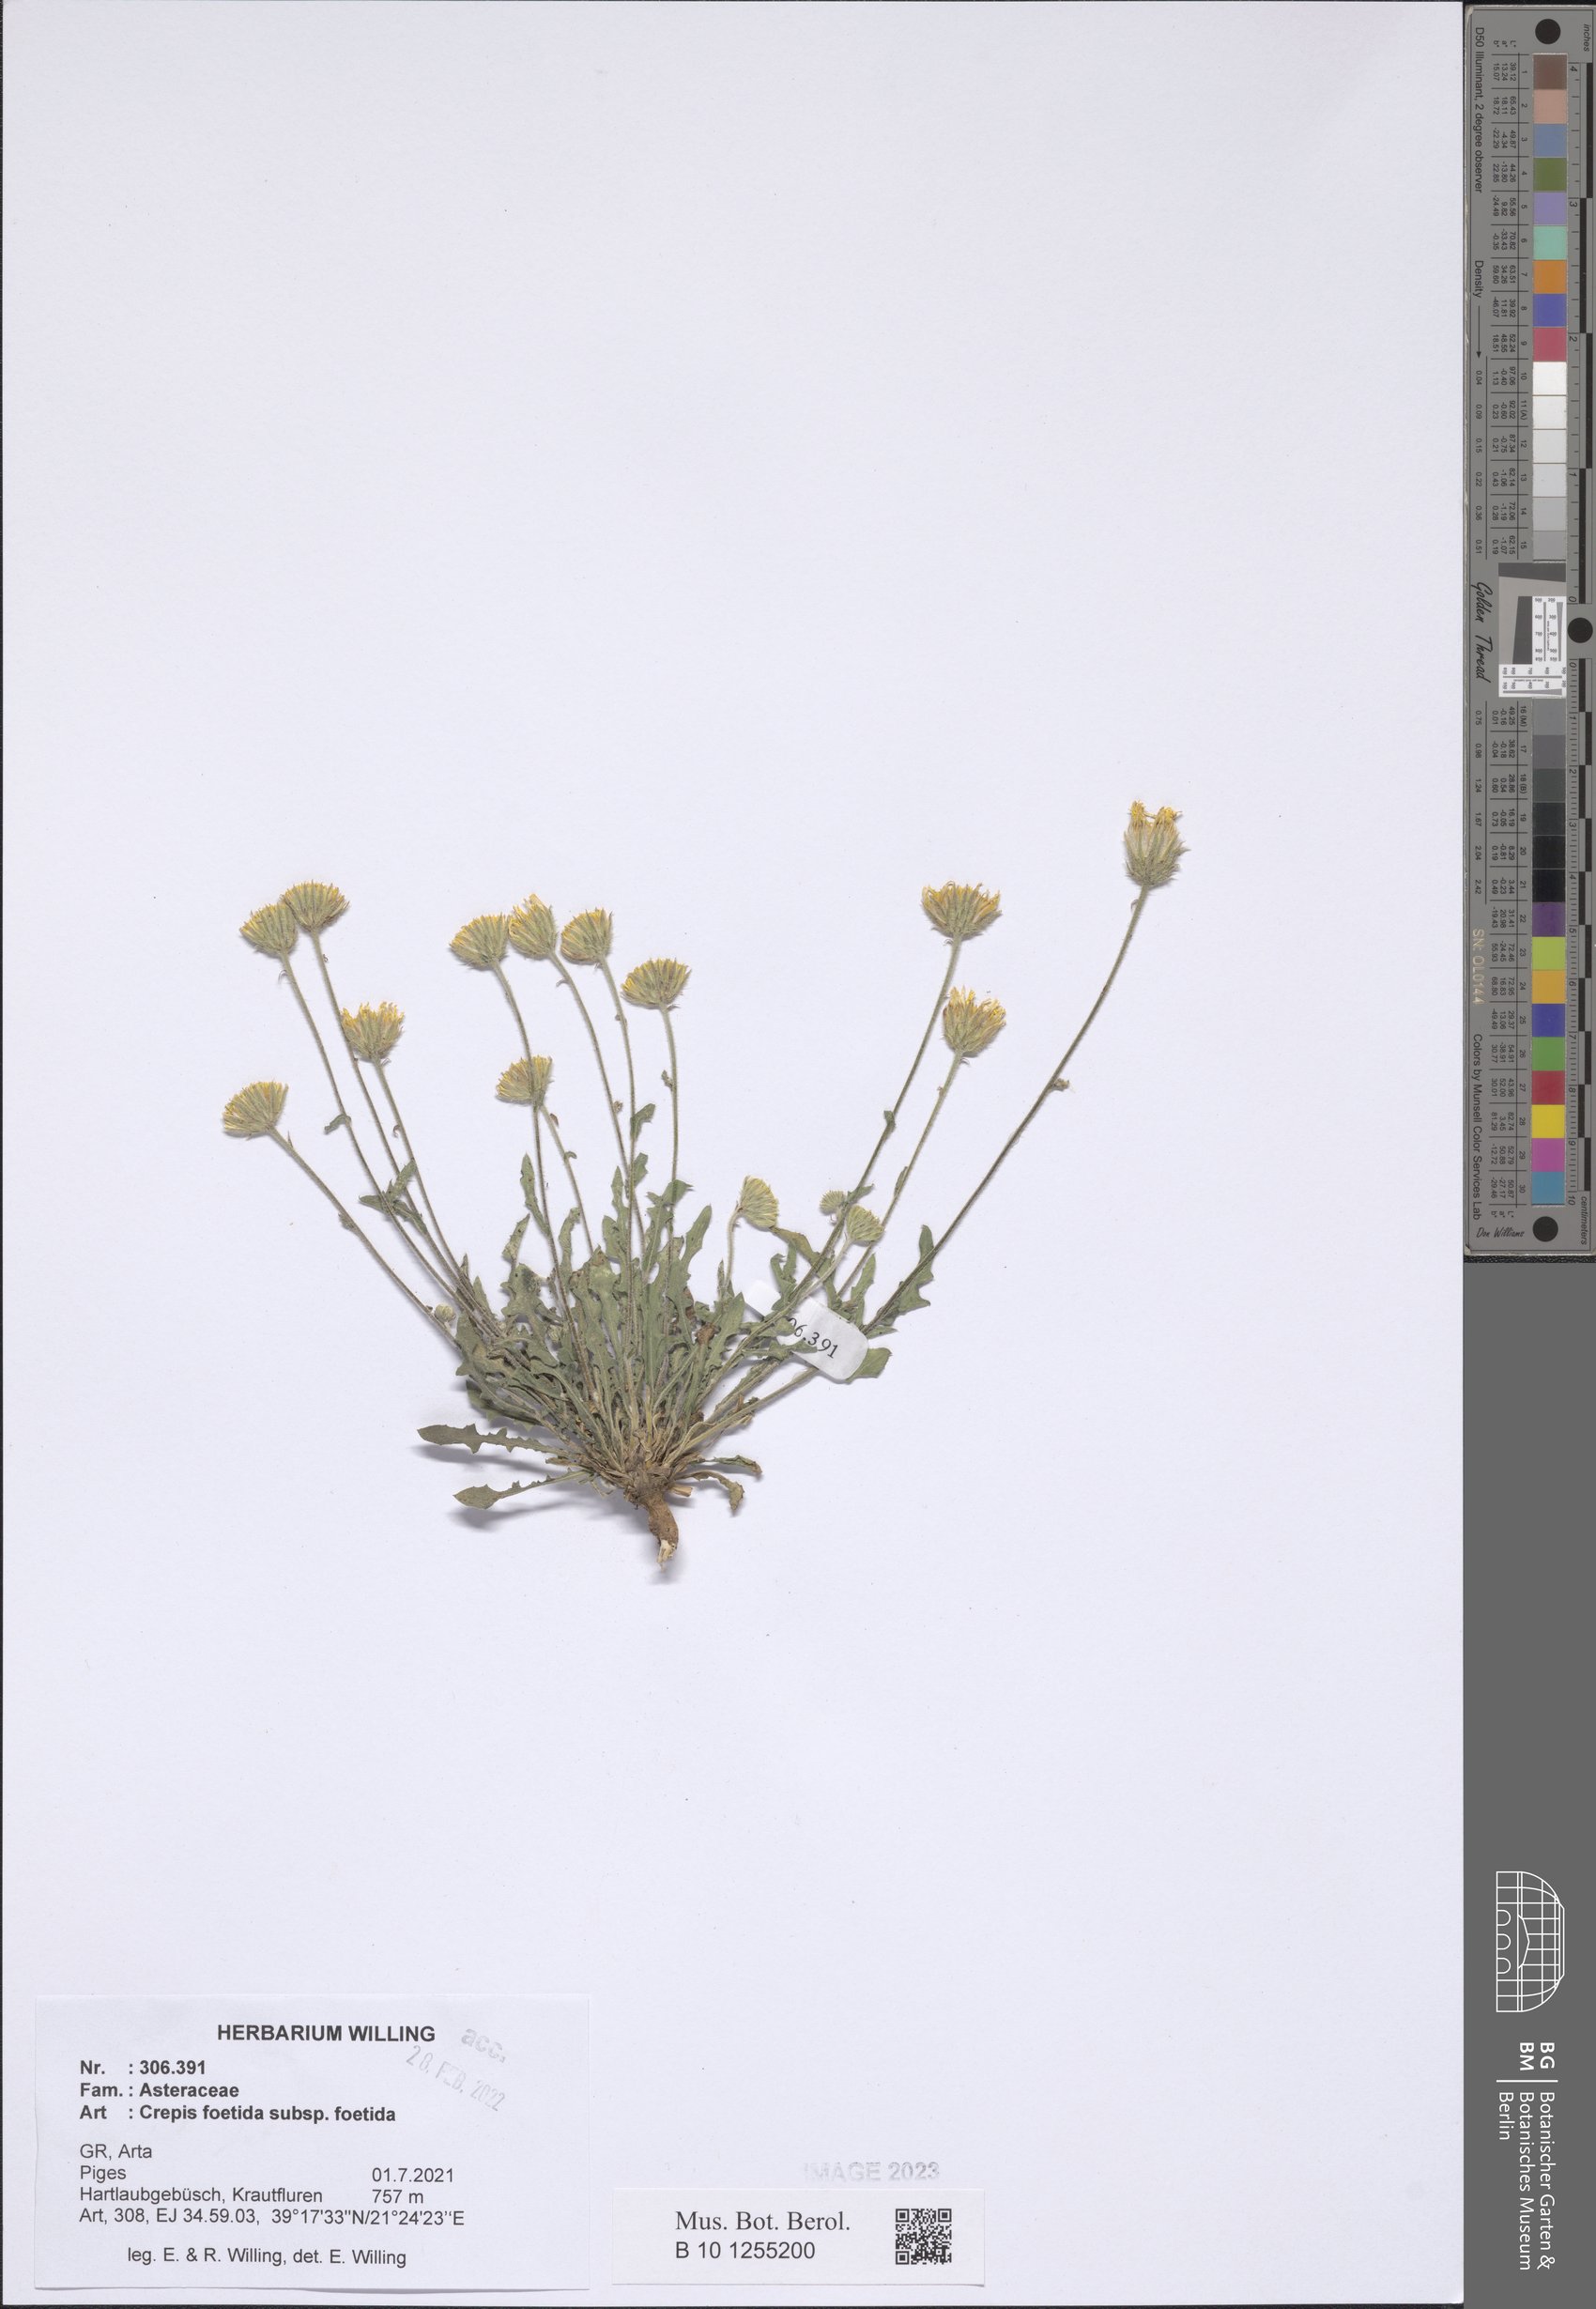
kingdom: Plantae
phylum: Tracheophyta
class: Magnoliopsida
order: Asterales
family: Asteraceae
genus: Crepis
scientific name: Crepis foetida
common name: Stinking hawk's-beard
